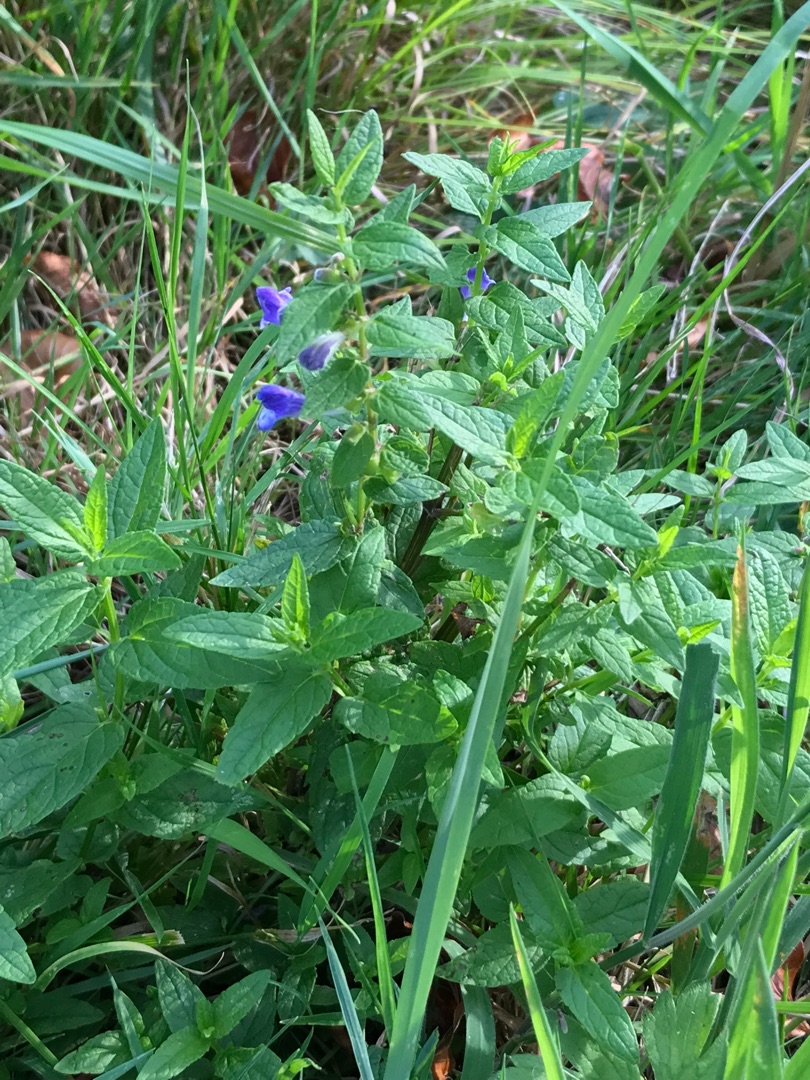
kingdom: Plantae
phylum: Tracheophyta
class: Magnoliopsida
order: Lamiales
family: Lamiaceae
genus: Scutellaria
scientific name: Scutellaria galericulata
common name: Almindelig skjolddrager
